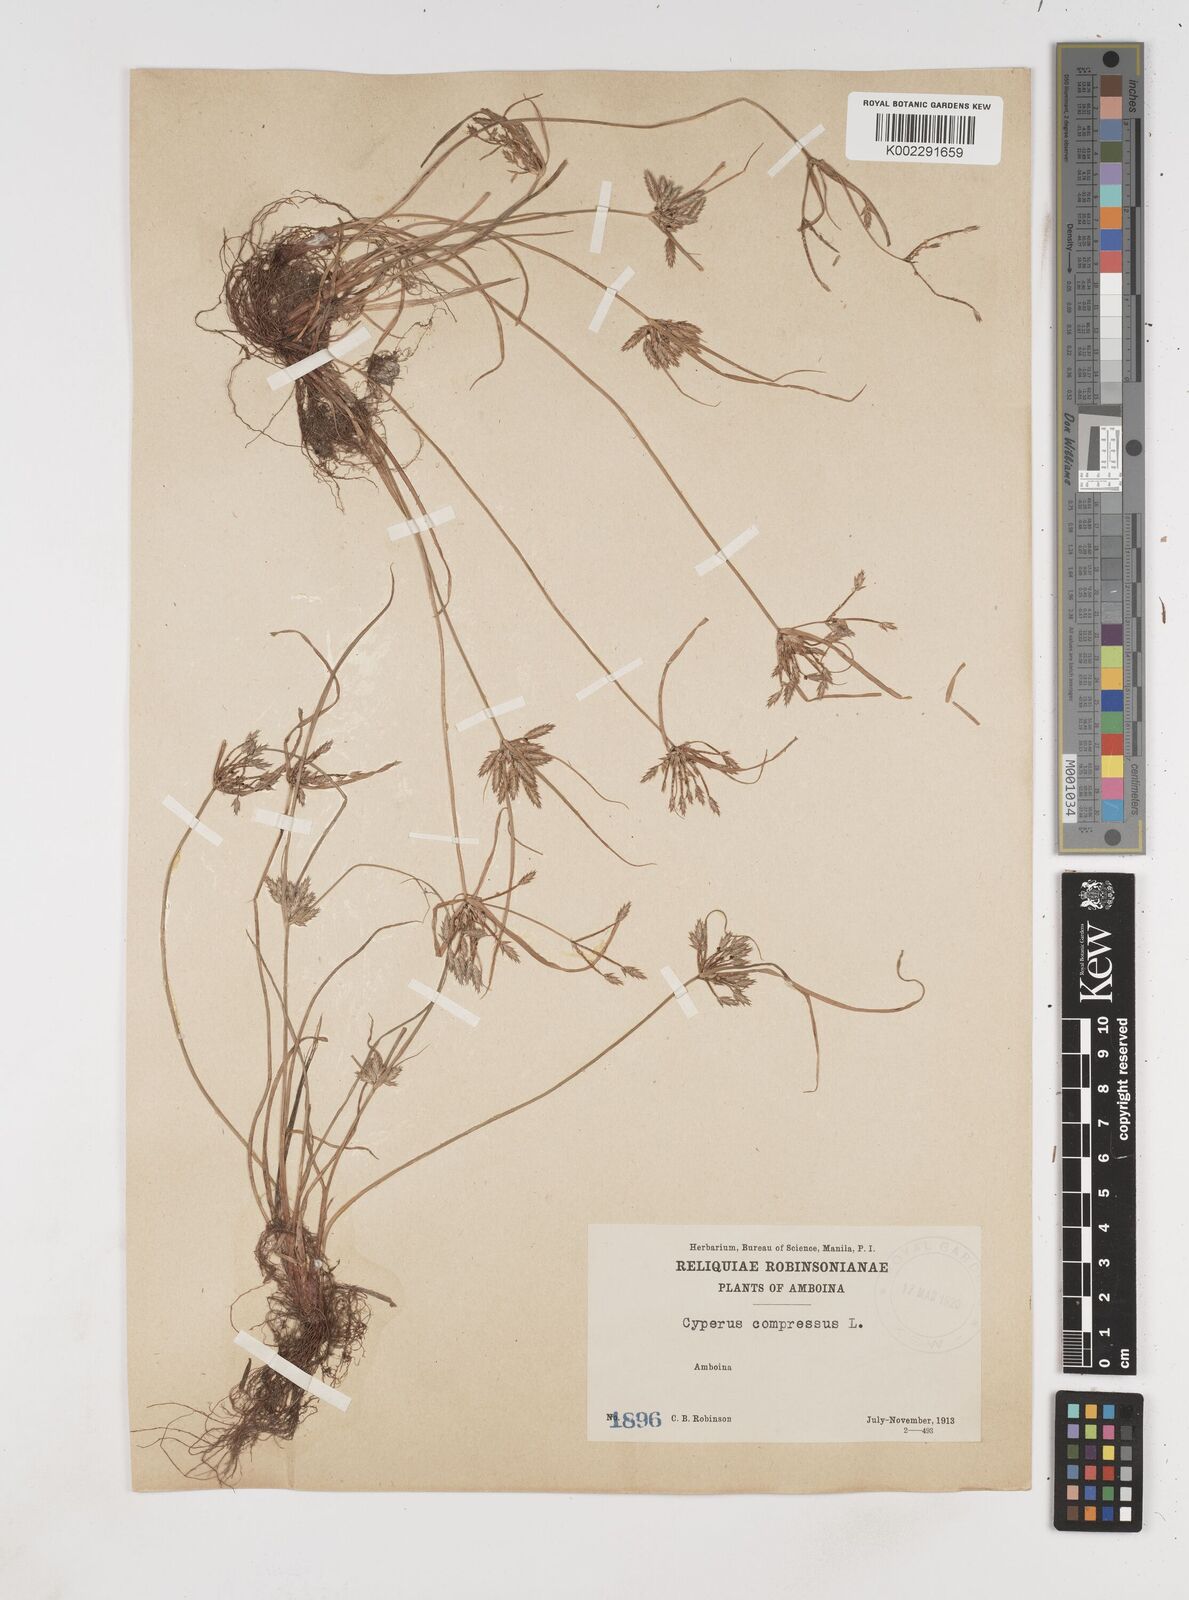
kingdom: Plantae
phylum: Tracheophyta
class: Liliopsida
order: Poales
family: Cyperaceae
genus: Cyperus
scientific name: Cyperus compressus
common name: Poorland flatsedge
